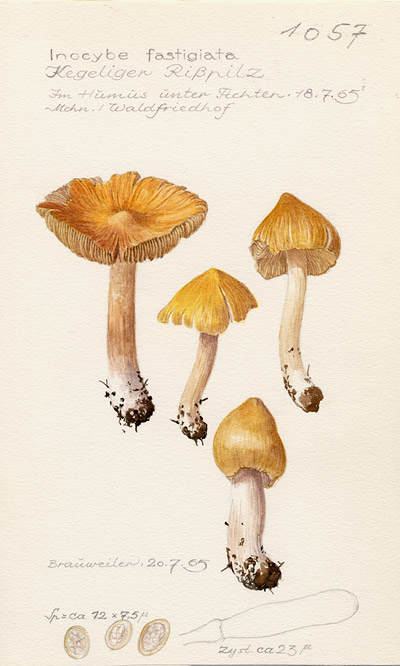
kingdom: Fungi
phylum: Basidiomycota
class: Agaricomycetes
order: Agaricales
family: Inocybaceae
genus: Pseudosperma
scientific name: Pseudosperma rimosum
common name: Split fibrecap
